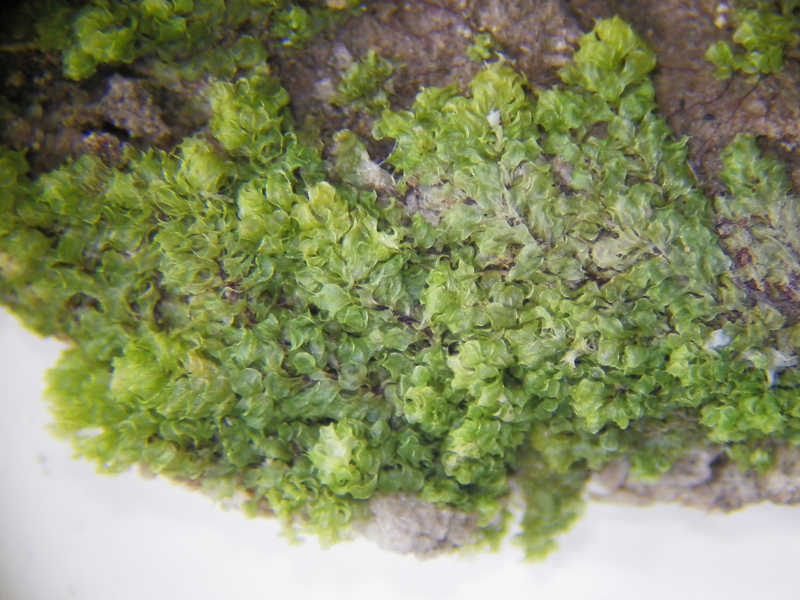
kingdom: Plantae
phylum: Bryophyta
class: Bryopsida
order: Hookeriales
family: Daltoniaceae
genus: Distichophyllum
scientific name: Distichophyllum brevicuspis
